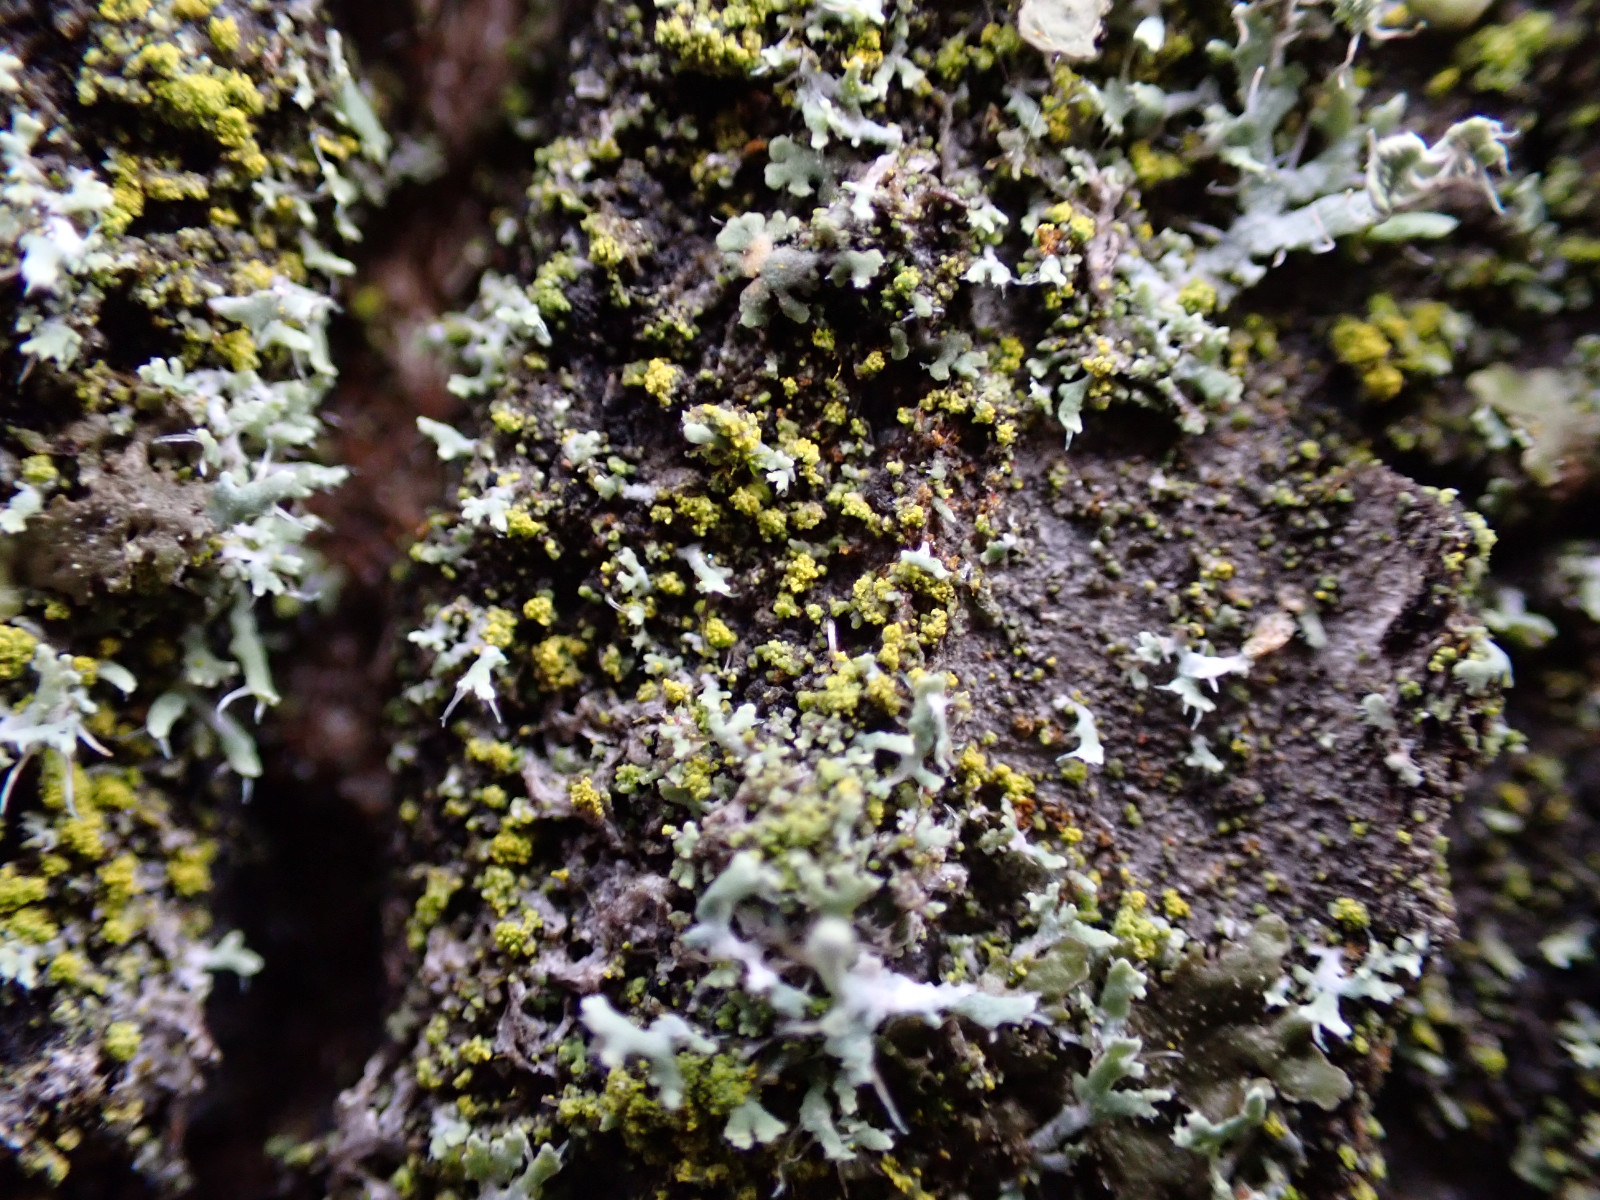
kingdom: Fungi
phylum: Ascomycota
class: Candelariomycetes
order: Candelariales
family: Candelariaceae
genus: Candelariella
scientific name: Candelariella reflexa
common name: grynskællet æggeblommelav
